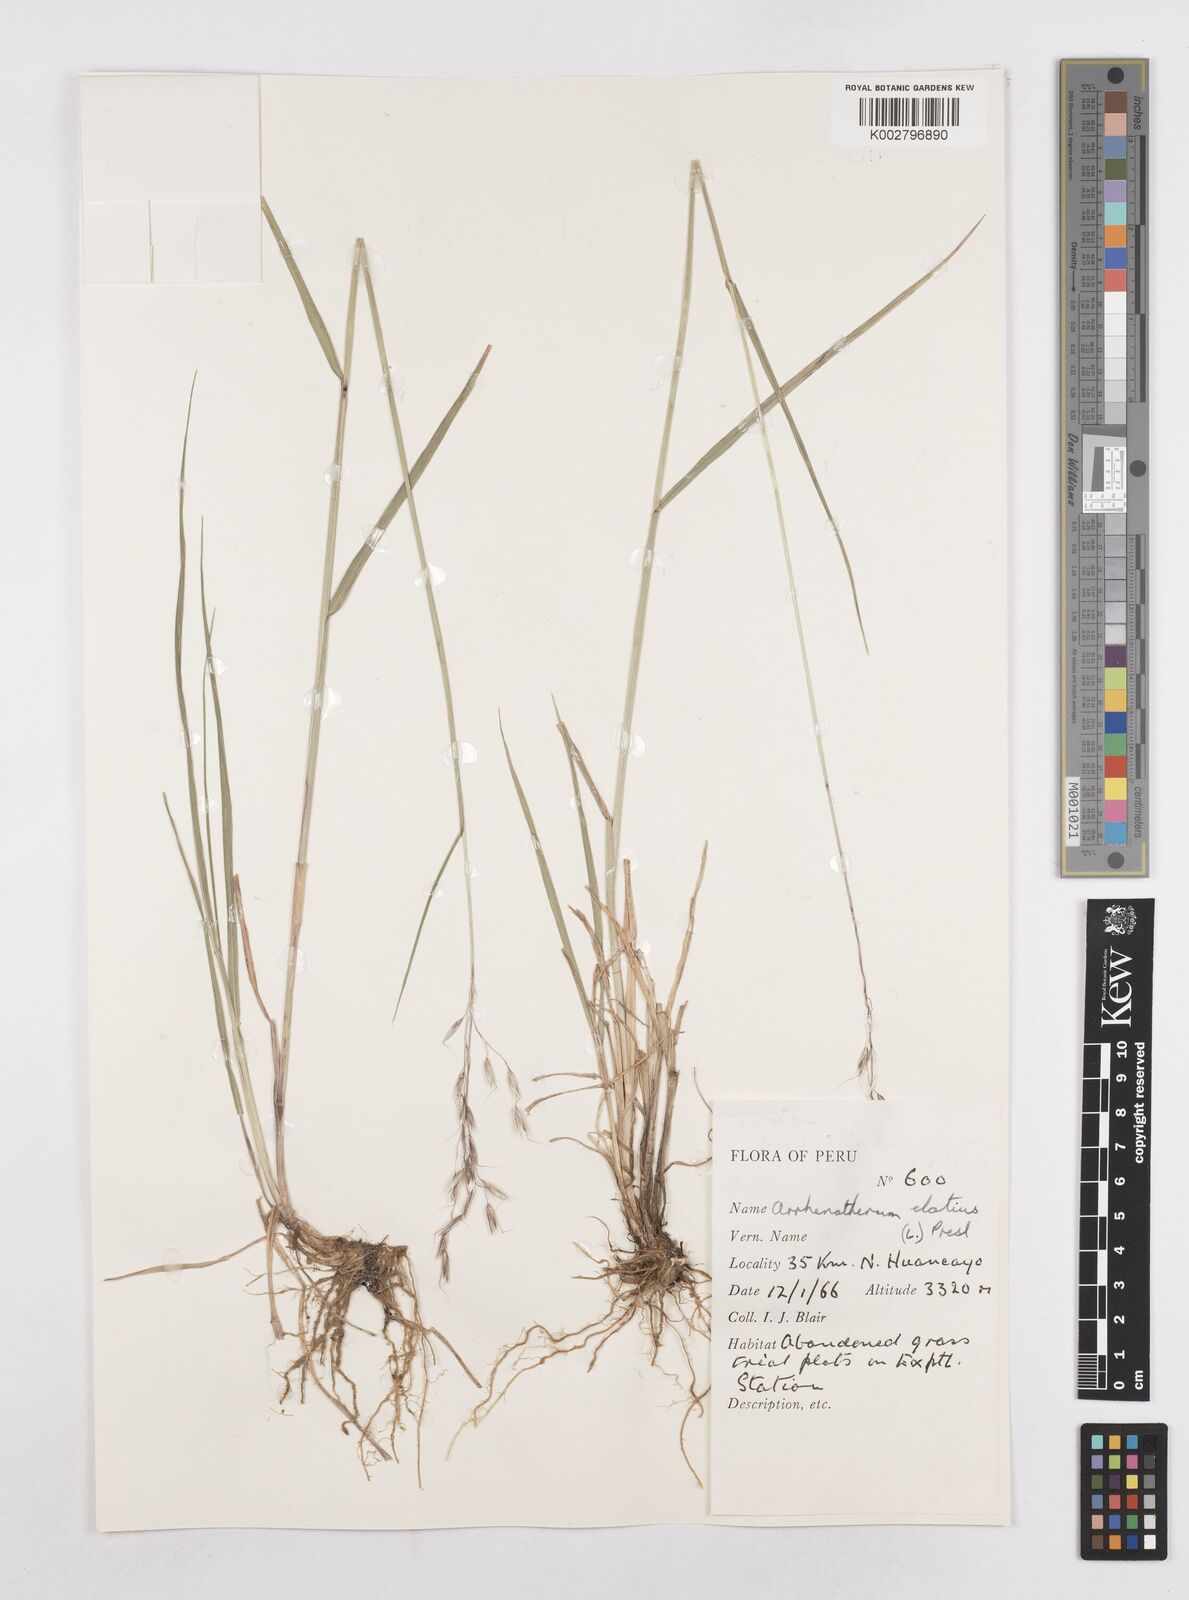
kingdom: Plantae
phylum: Tracheophyta
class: Liliopsida
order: Poales
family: Poaceae
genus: Arrhenatherum
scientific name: Arrhenatherum elatius
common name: Tall oatgrass
